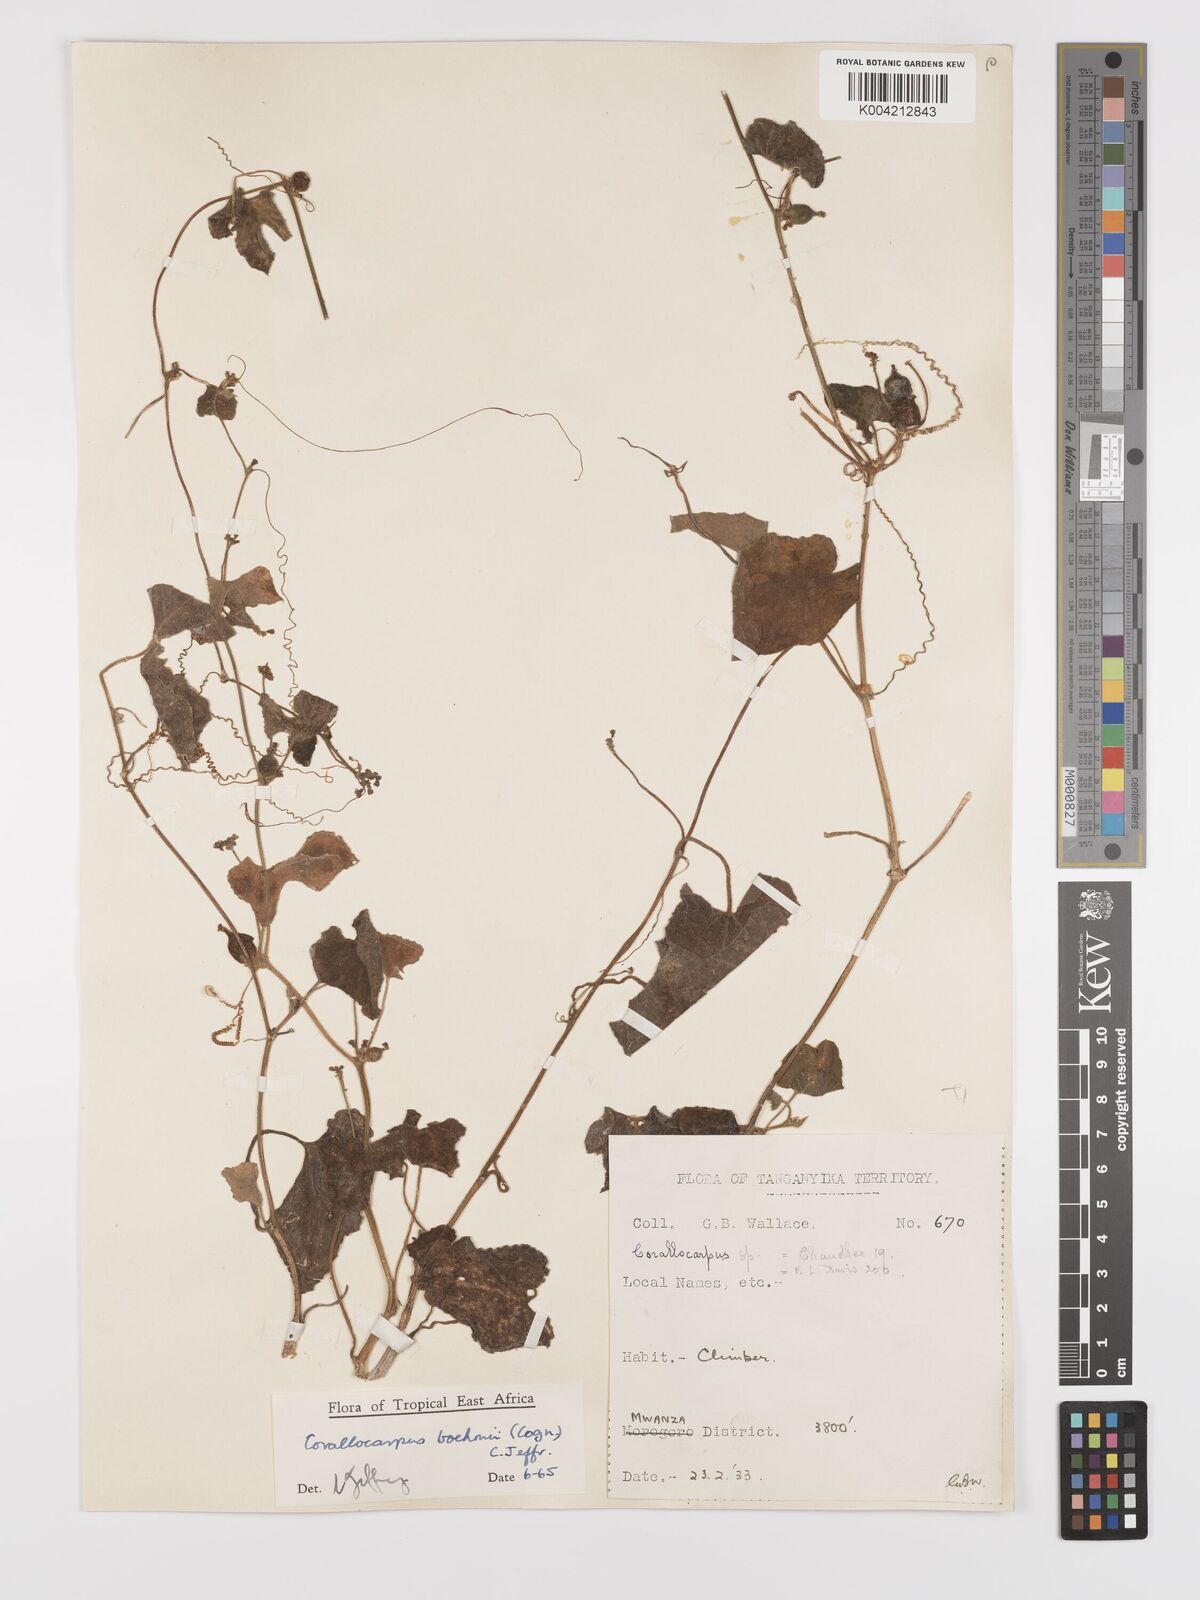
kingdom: Plantae
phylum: Tracheophyta
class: Magnoliopsida
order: Cucurbitales
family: Cucurbitaceae
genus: Corallocarpus
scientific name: Corallocarpus boehmii
